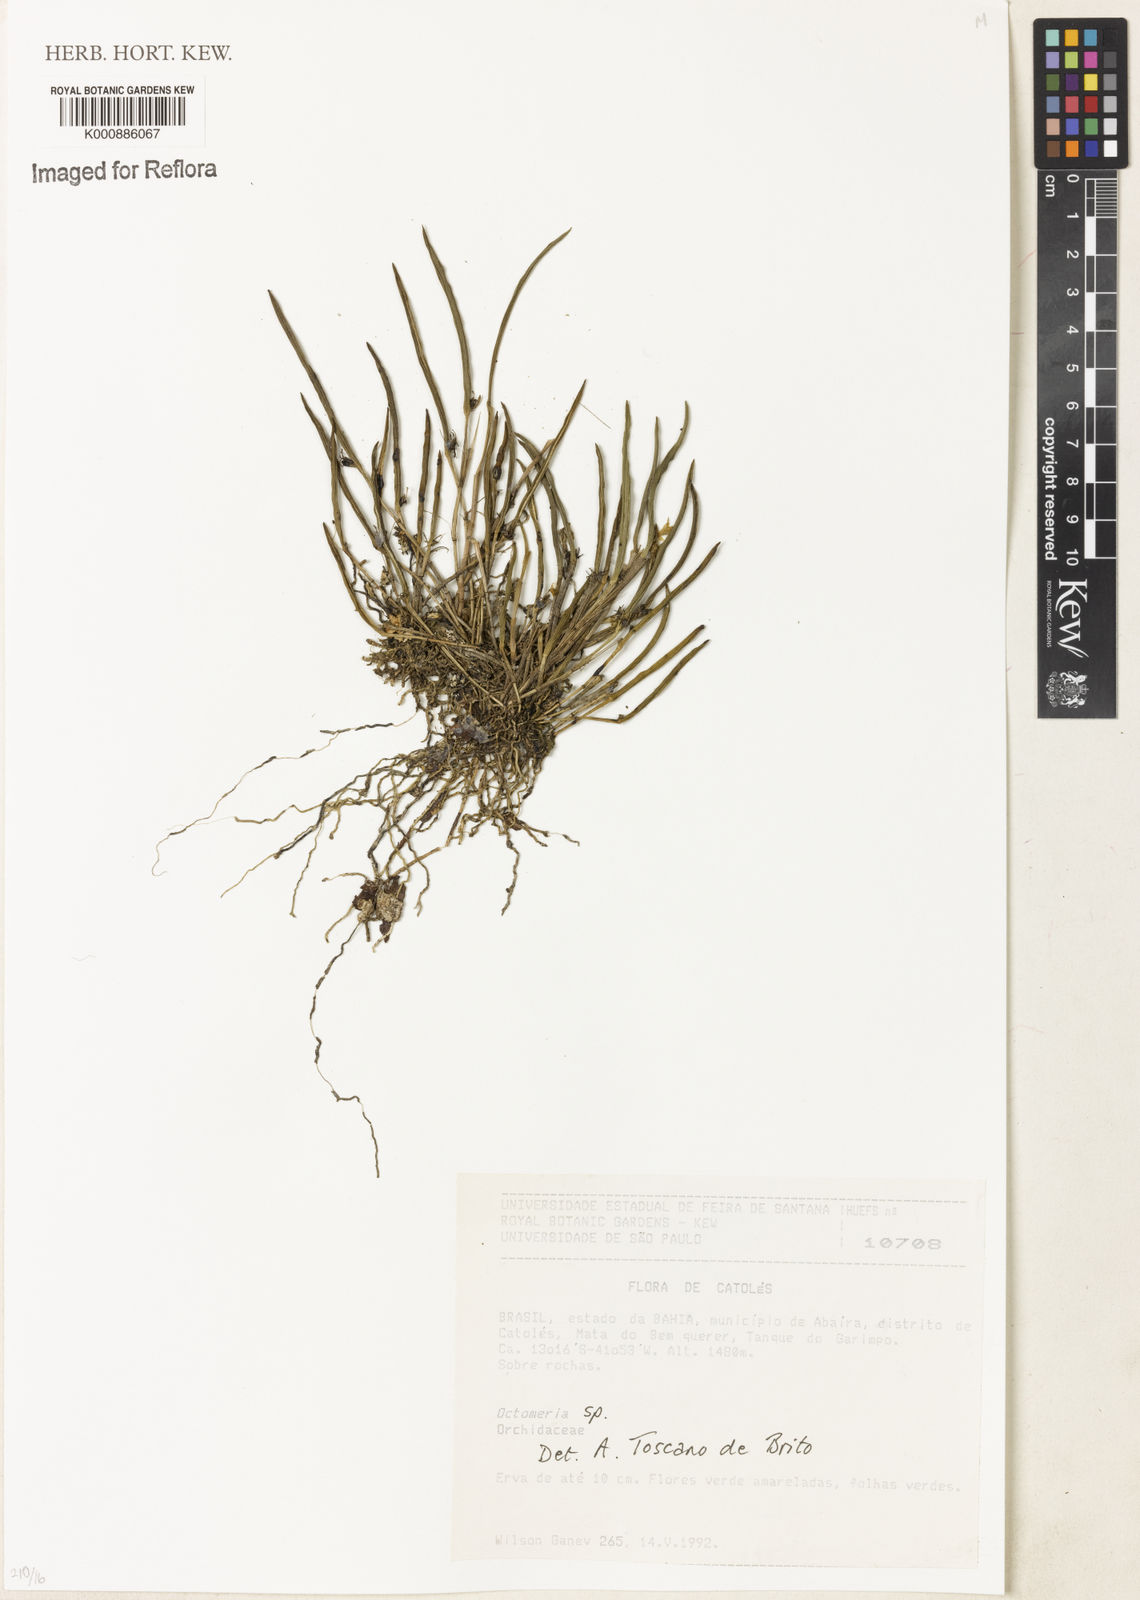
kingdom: Plantae
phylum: Tracheophyta
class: Liliopsida
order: Asparagales
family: Orchidaceae
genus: Octomeria
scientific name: Octomeria
